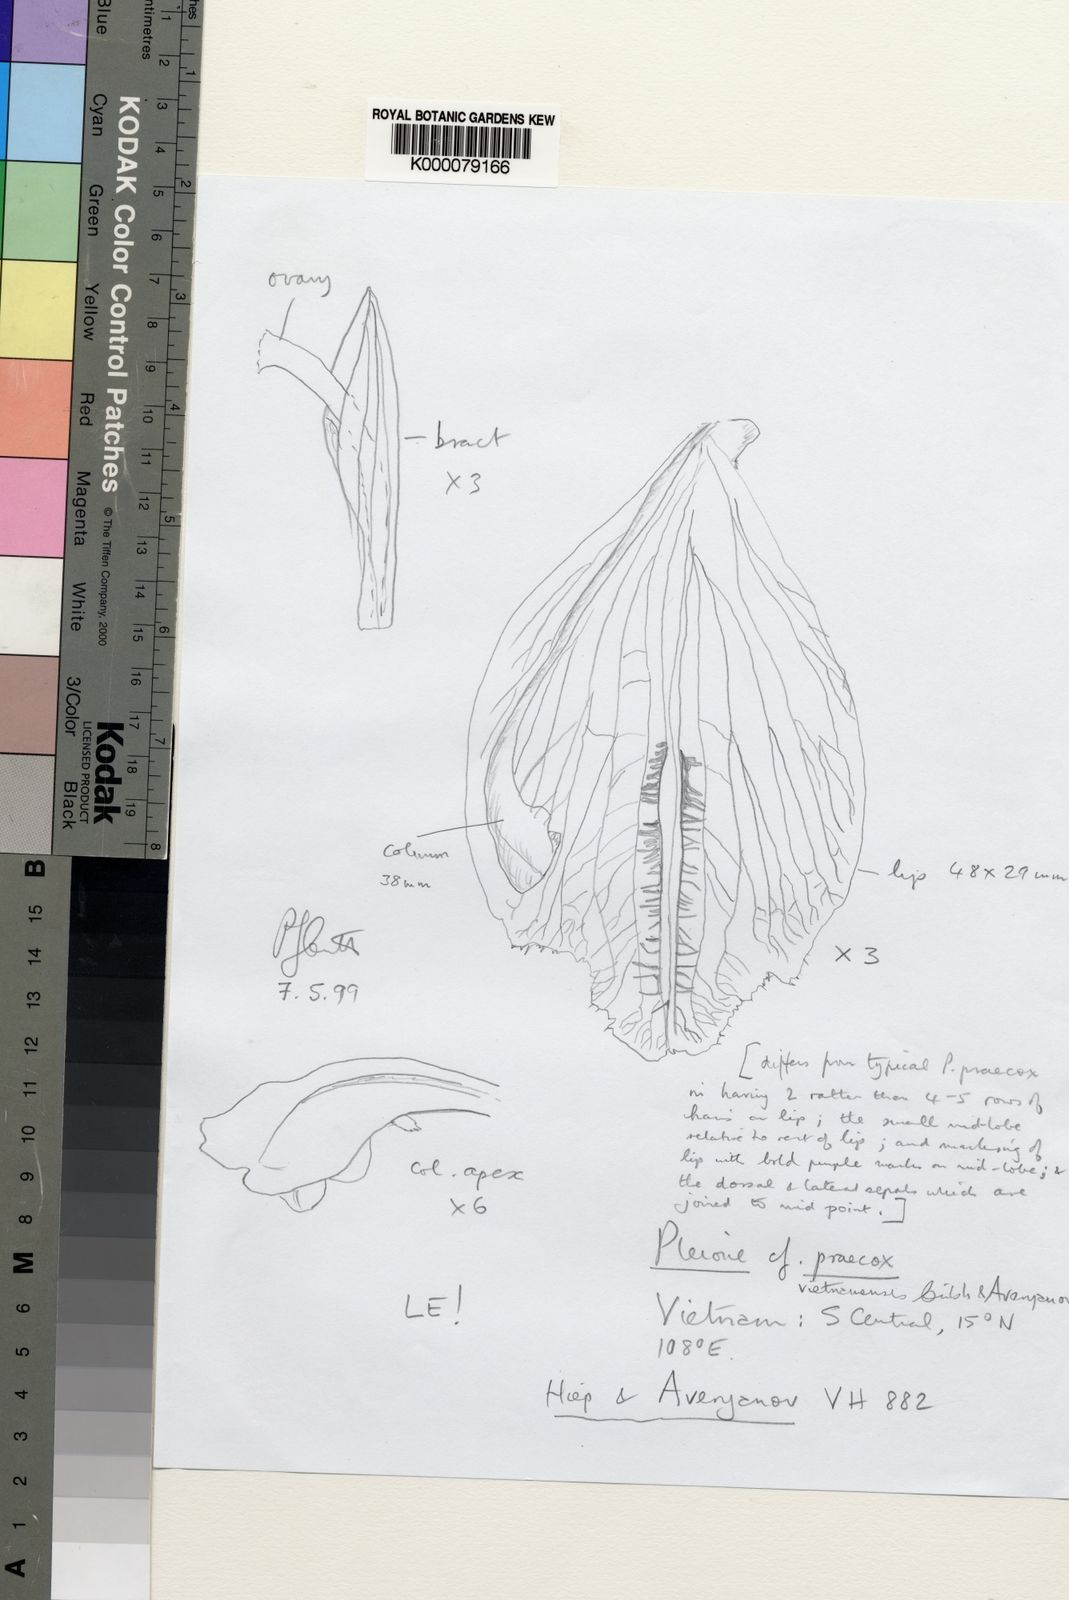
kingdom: Plantae
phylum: Tracheophyta
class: Liliopsida
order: Asparagales
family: Orchidaceae
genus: Pleione
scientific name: Pleione vietnamensis
